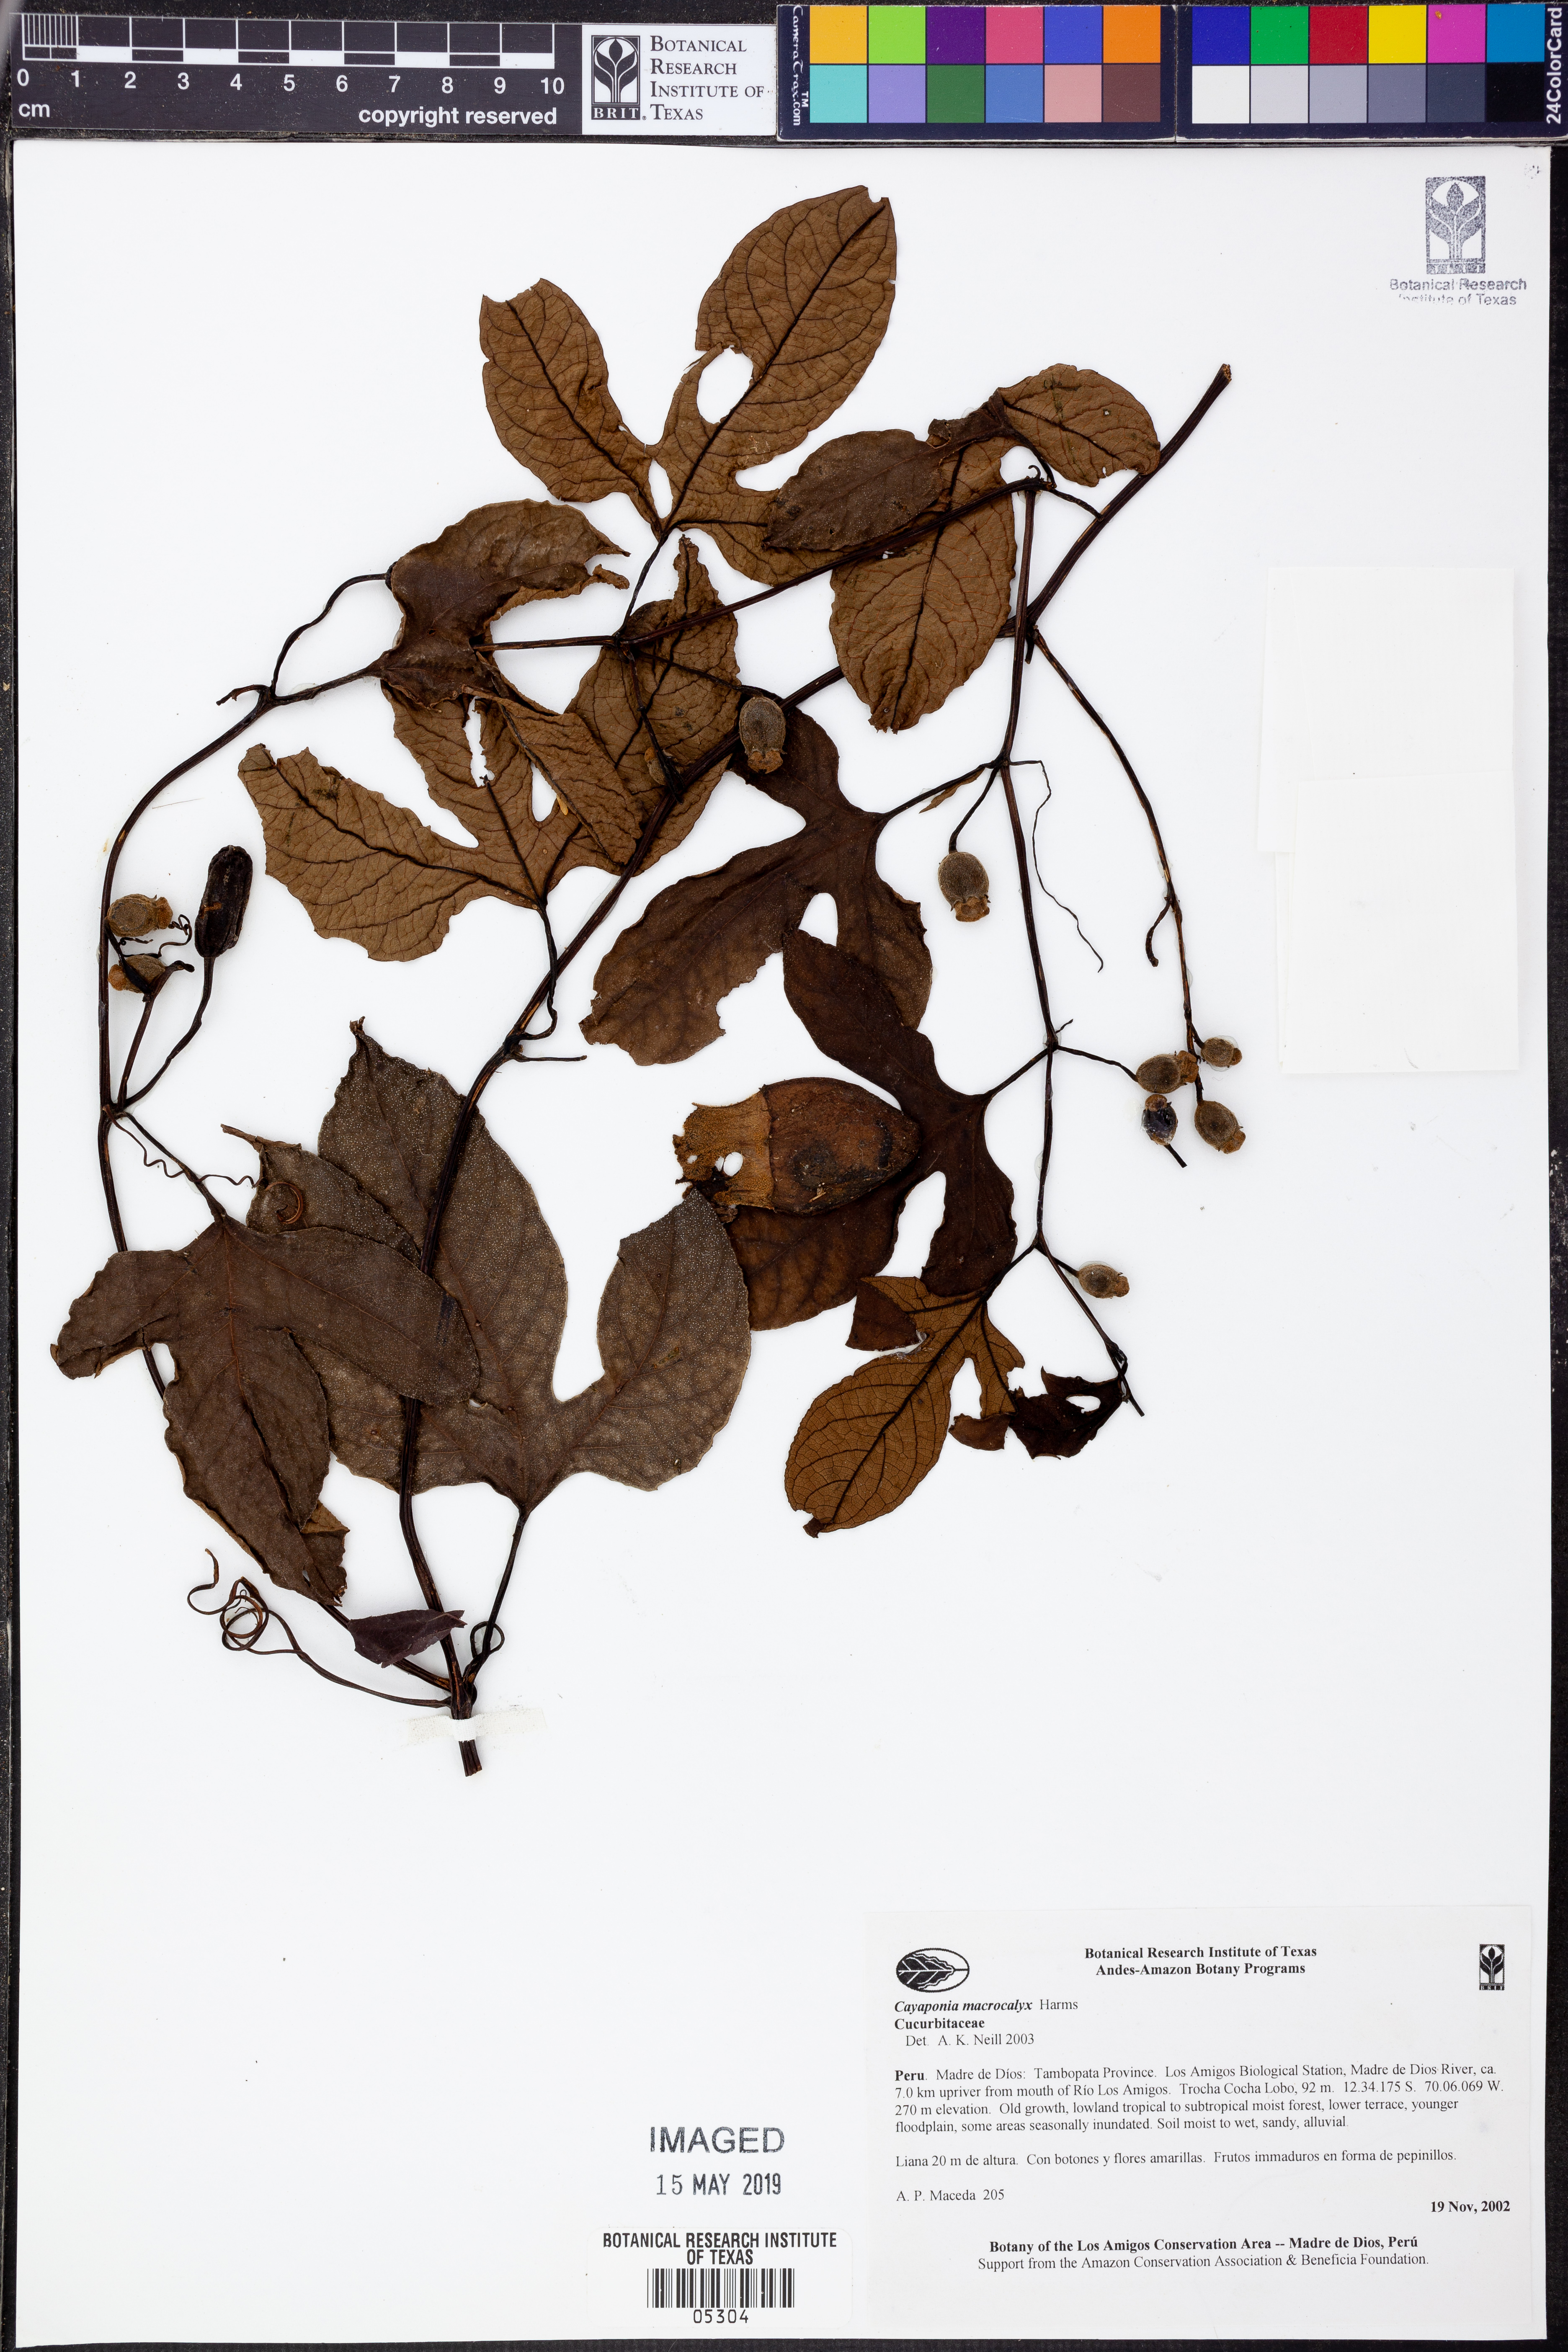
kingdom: Plantae
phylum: Tracheophyta
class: Magnoliopsida
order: Cucurbitales
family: Cucurbitaceae
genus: Cayaponia
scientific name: Cayaponia
